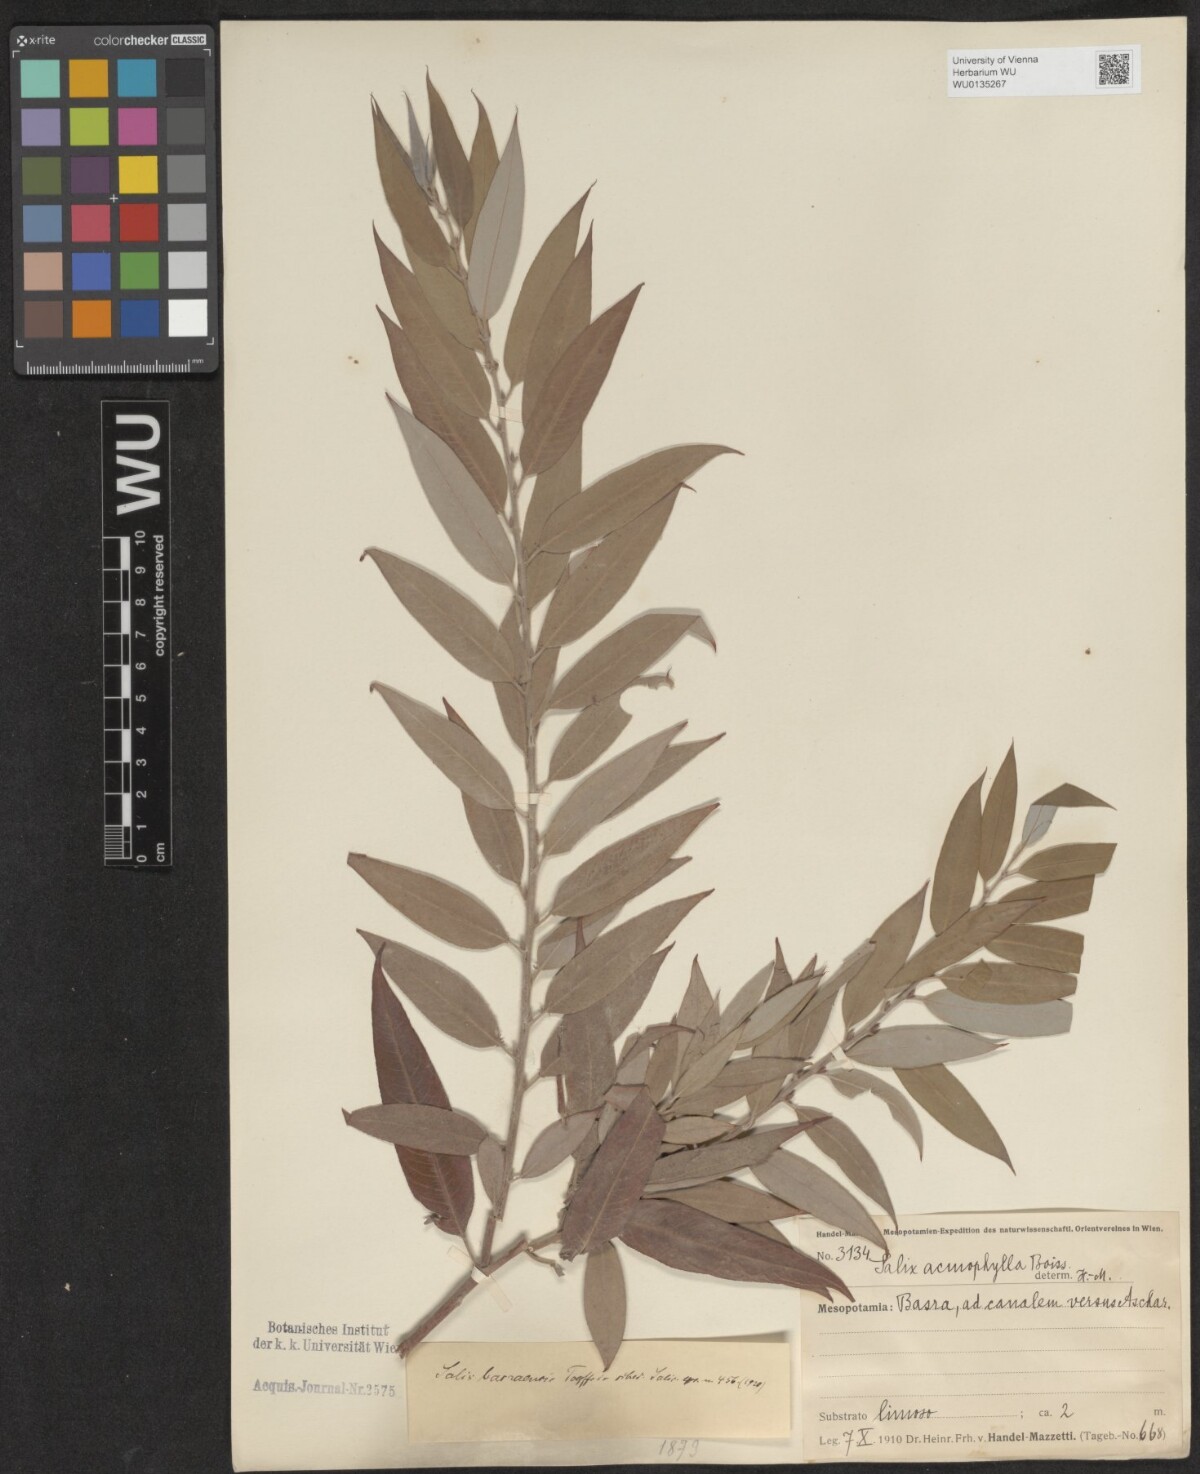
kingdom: Plantae
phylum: Tracheophyta
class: Magnoliopsida
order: Malpighiales
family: Salicaceae
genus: Salix
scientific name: Salix acmophylla
